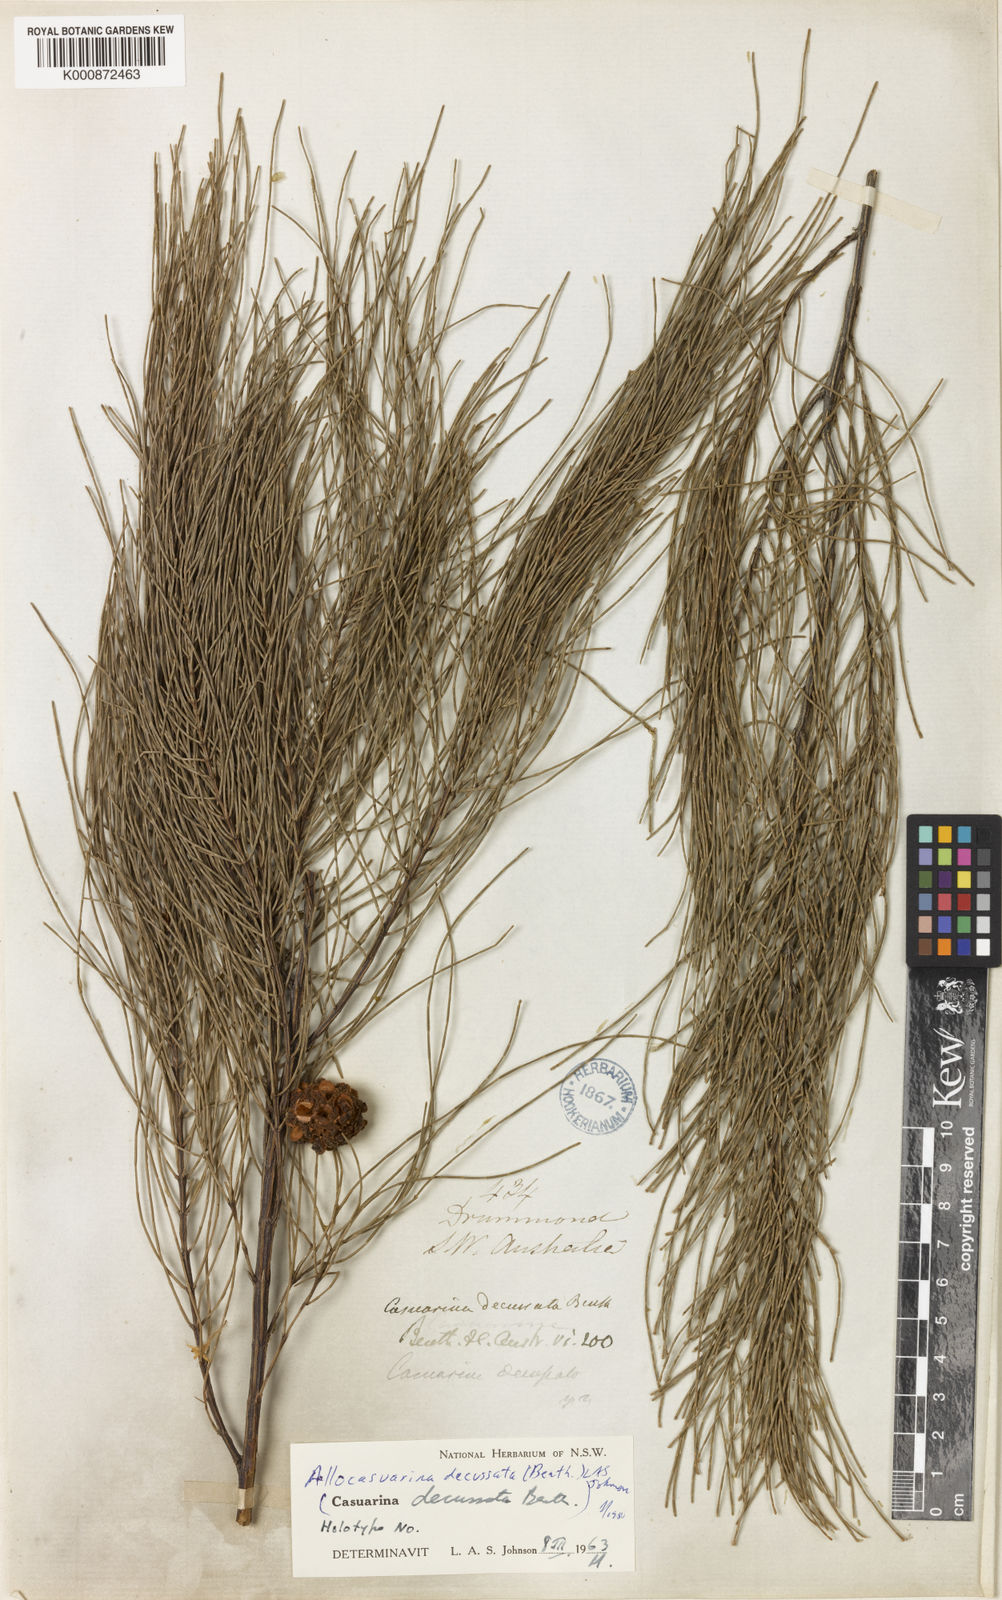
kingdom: Plantae
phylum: Tracheophyta
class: Magnoliopsida
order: Fagales
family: Casuarinaceae
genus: Allocasuarina
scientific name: Allocasuarina decussata
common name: Karri she-oak
